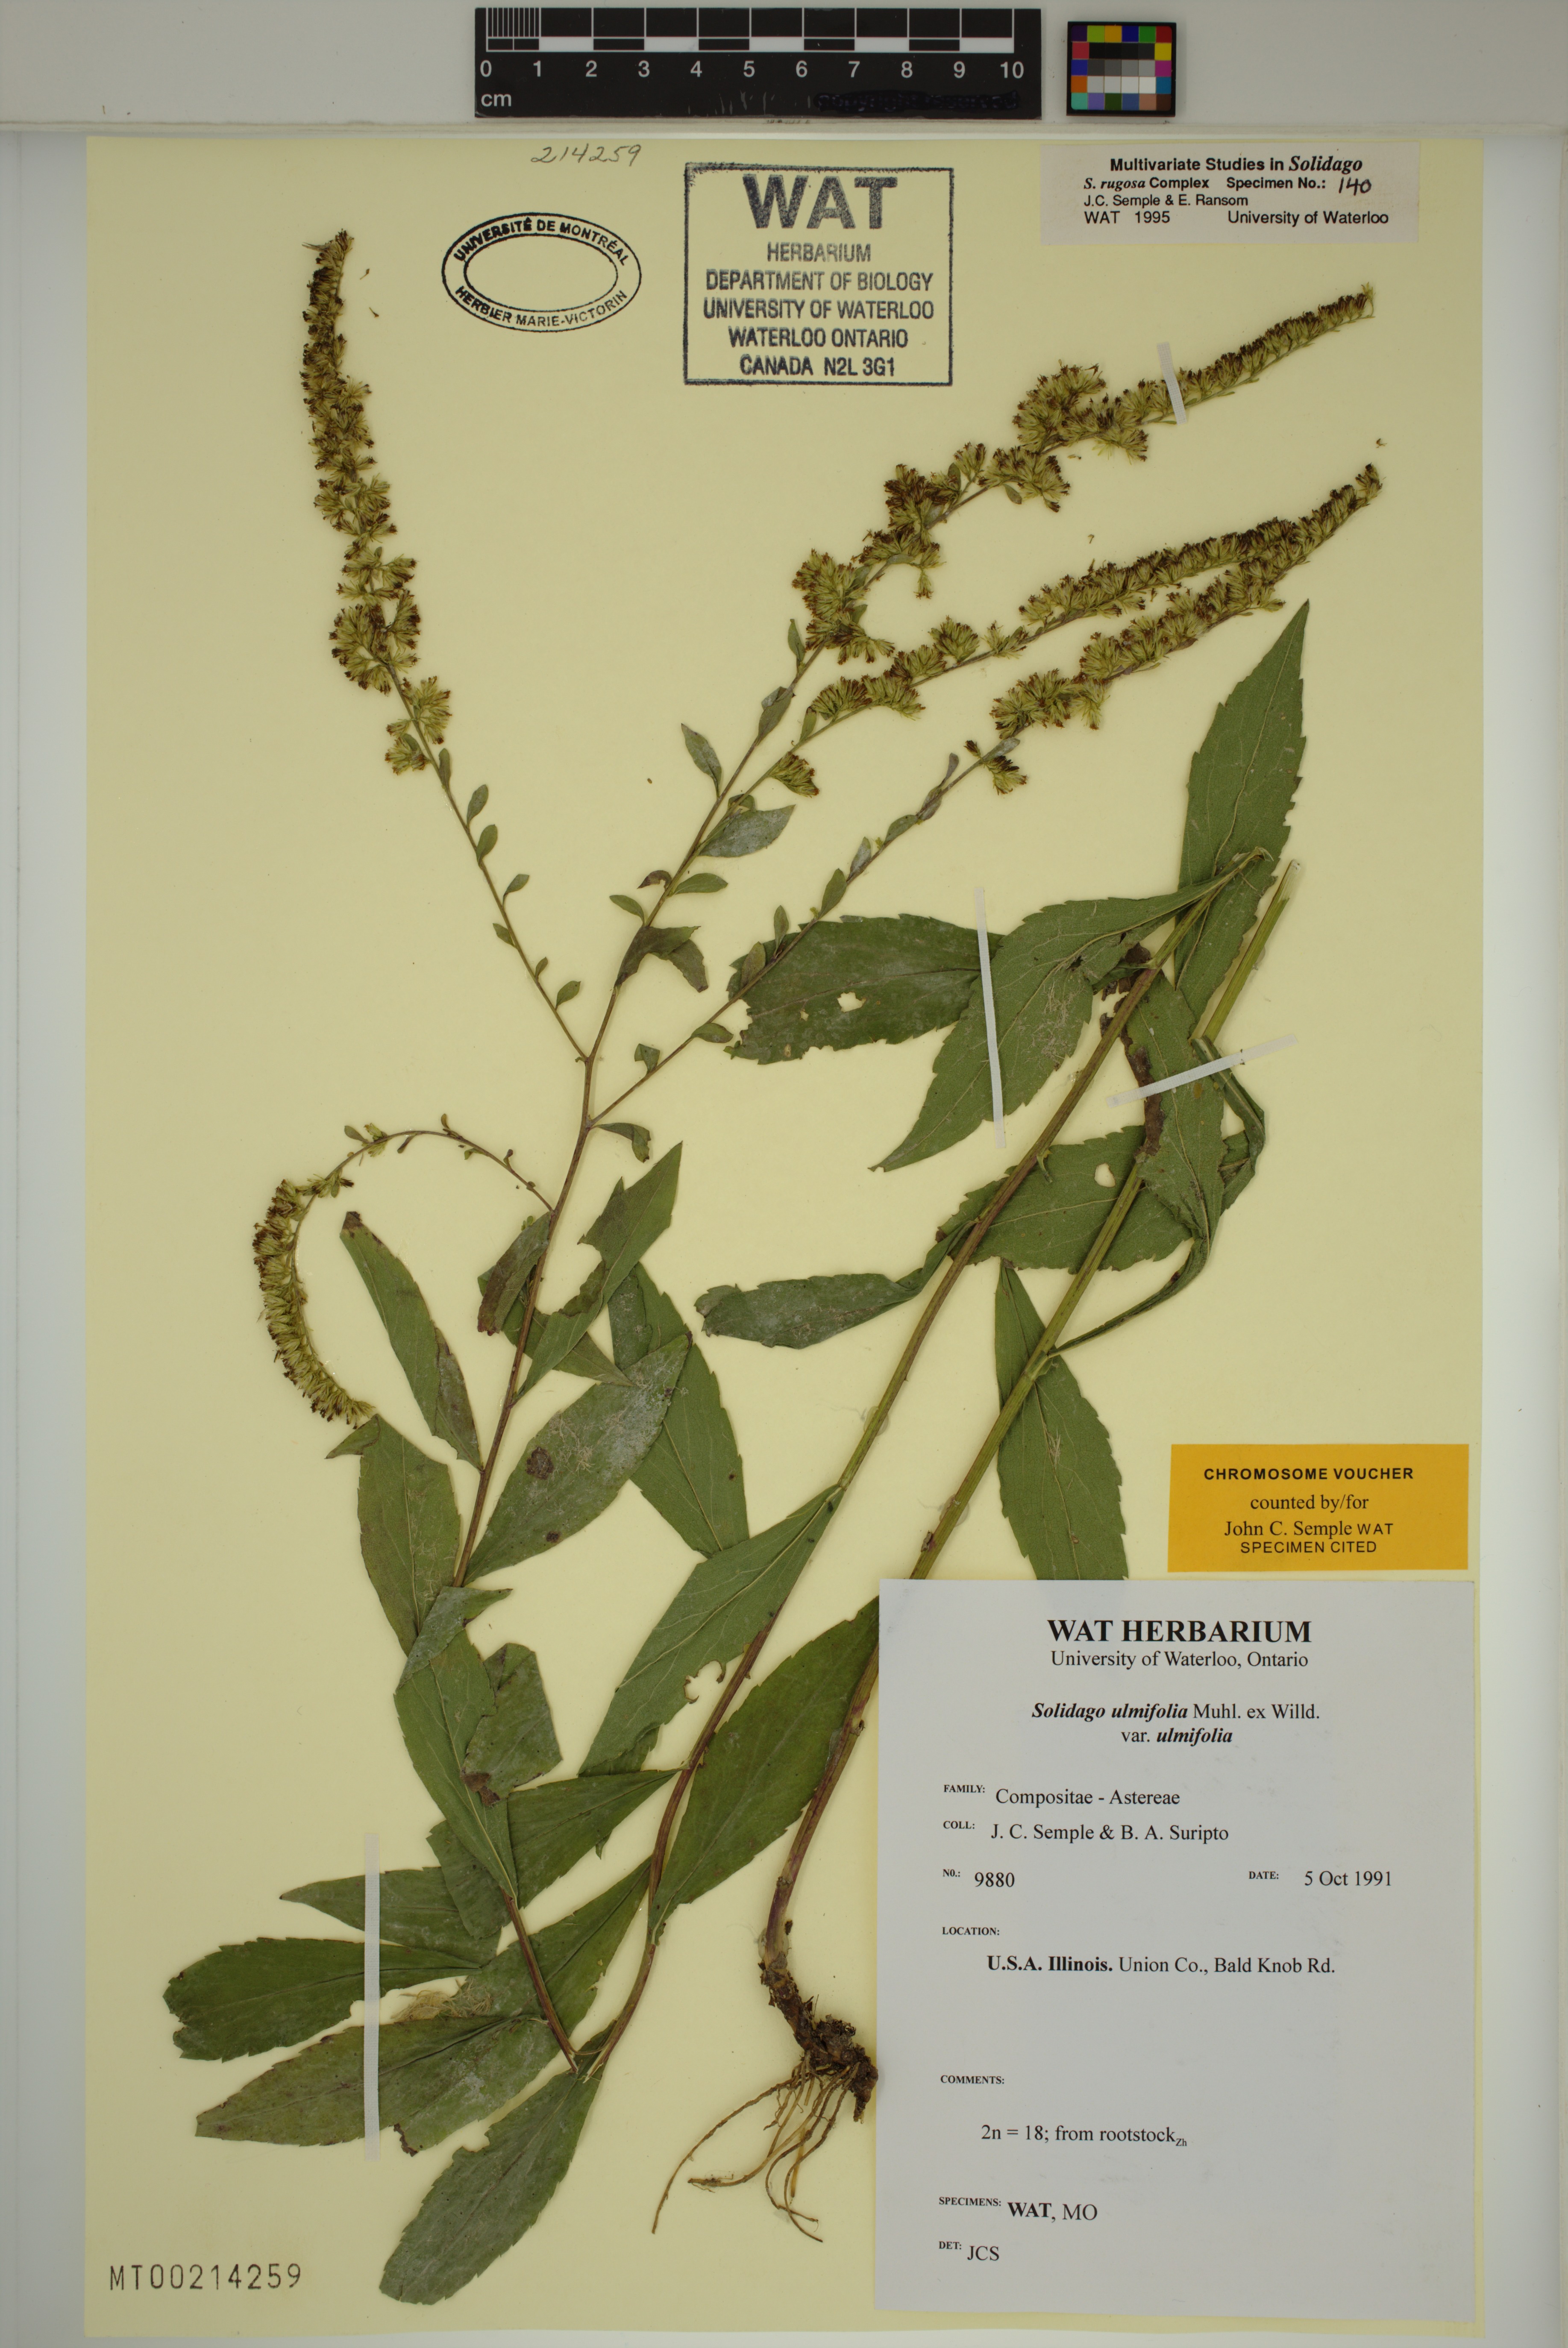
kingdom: Plantae
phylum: Tracheophyta
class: Magnoliopsida
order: Asterales
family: Asteraceae
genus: Solidago
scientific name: Solidago ulmifolia
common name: Elm-leaf goldenrod
